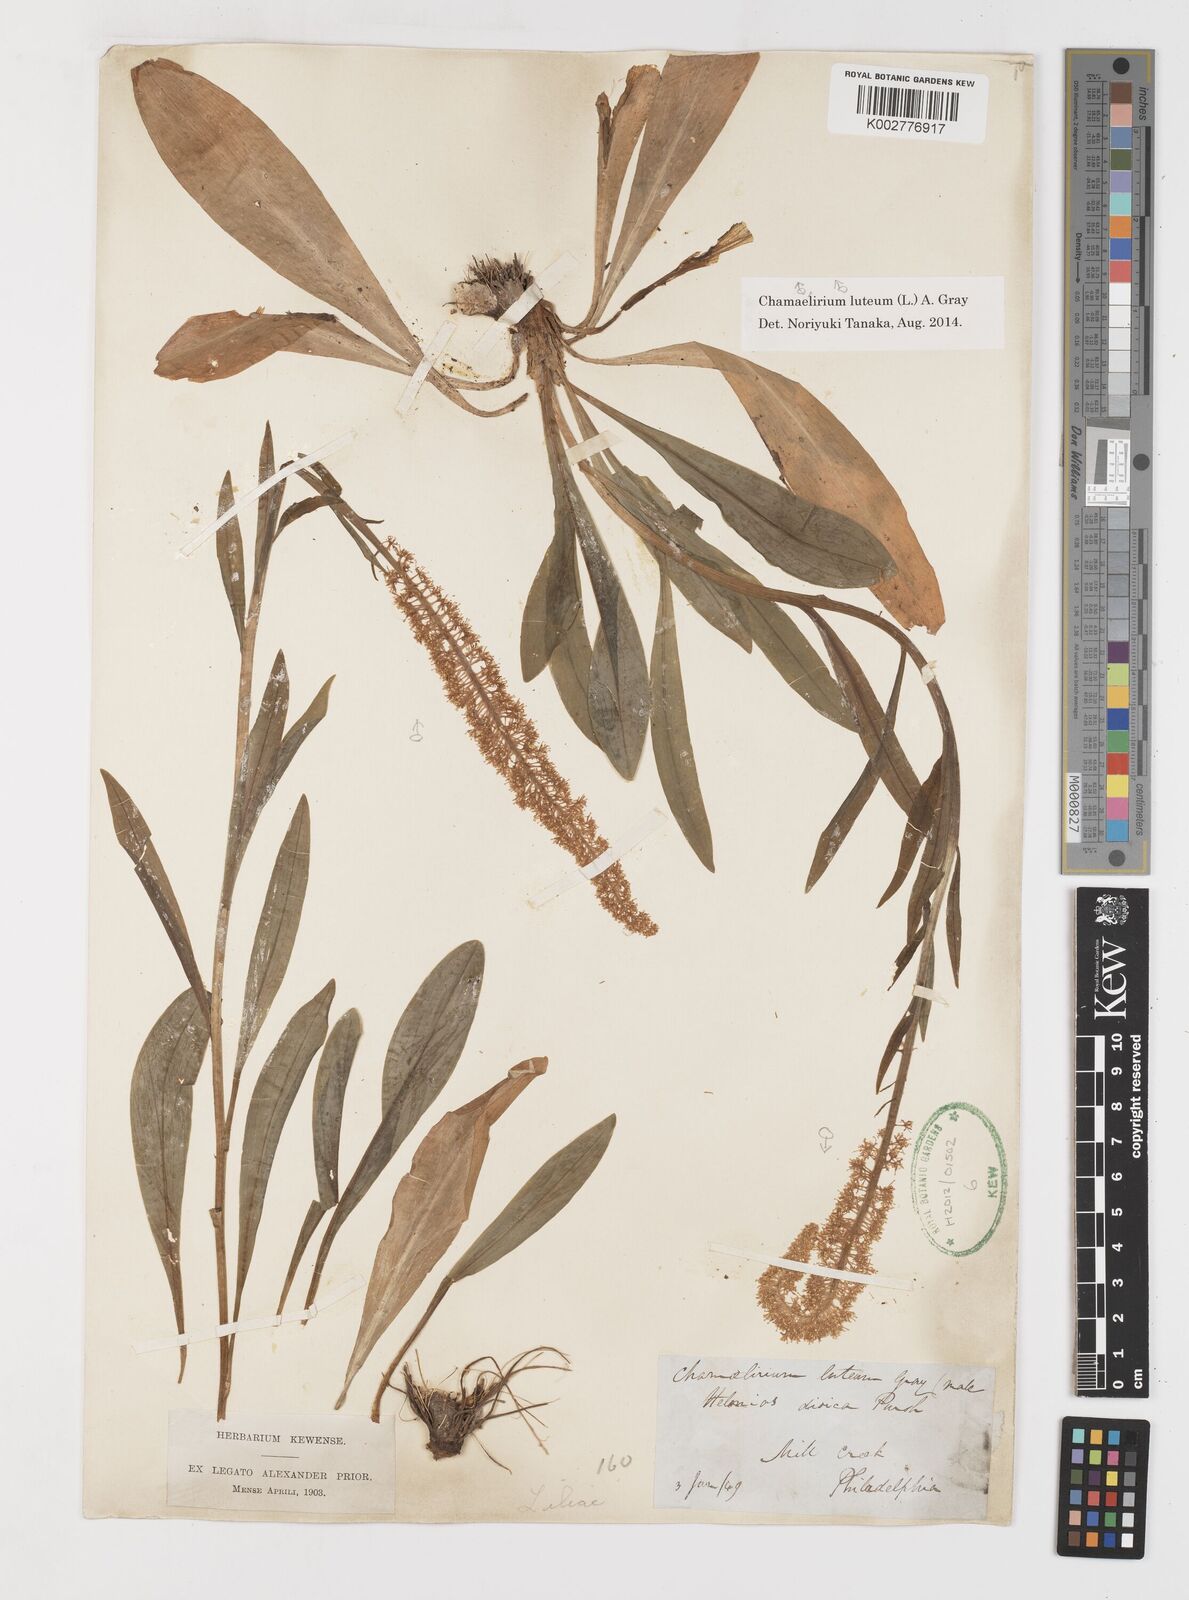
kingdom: Plantae
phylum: Tracheophyta
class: Liliopsida
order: Liliales
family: Melanthiaceae
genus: Chamaelirium
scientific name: Chamaelirium luteum
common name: Fairy-wand
